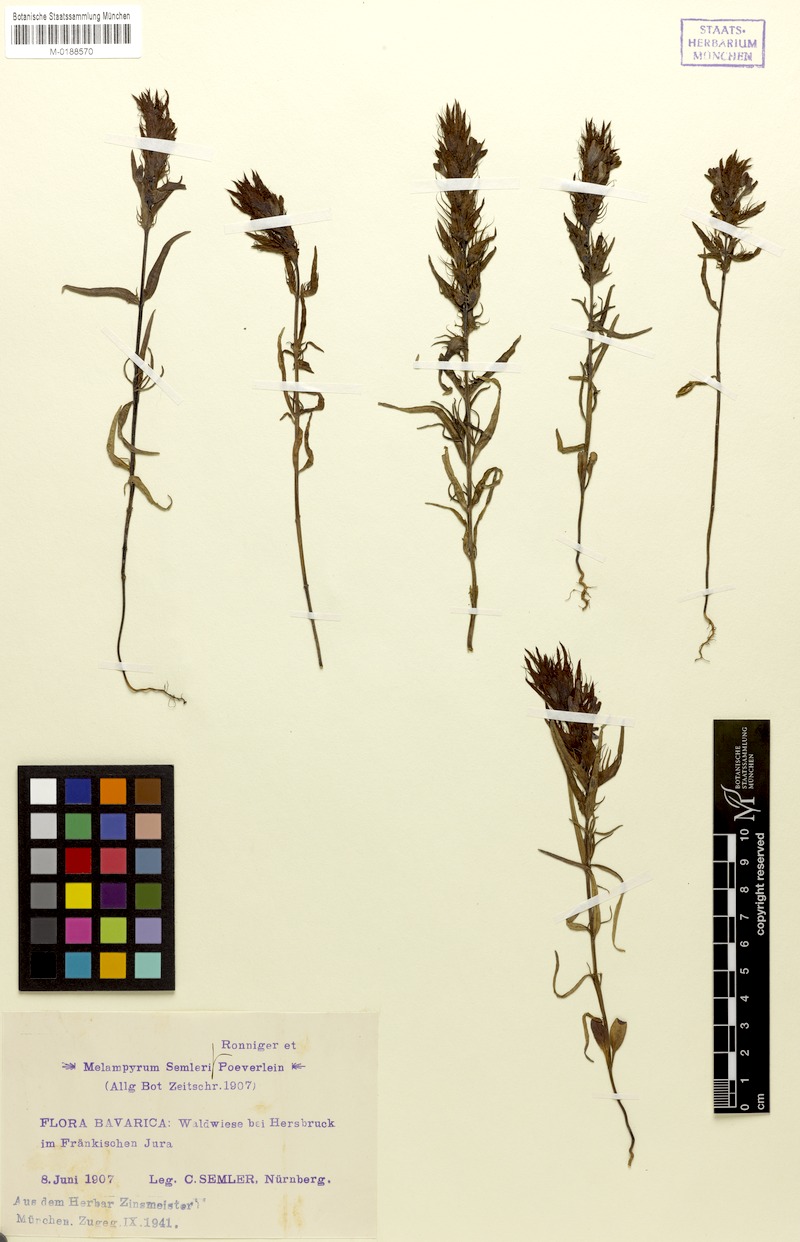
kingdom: Plantae
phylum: Tracheophyta
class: Magnoliopsida
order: Lamiales
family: Orobanchaceae
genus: Melampyrum
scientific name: Melampyrum arvense
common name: Field cow-wheat
